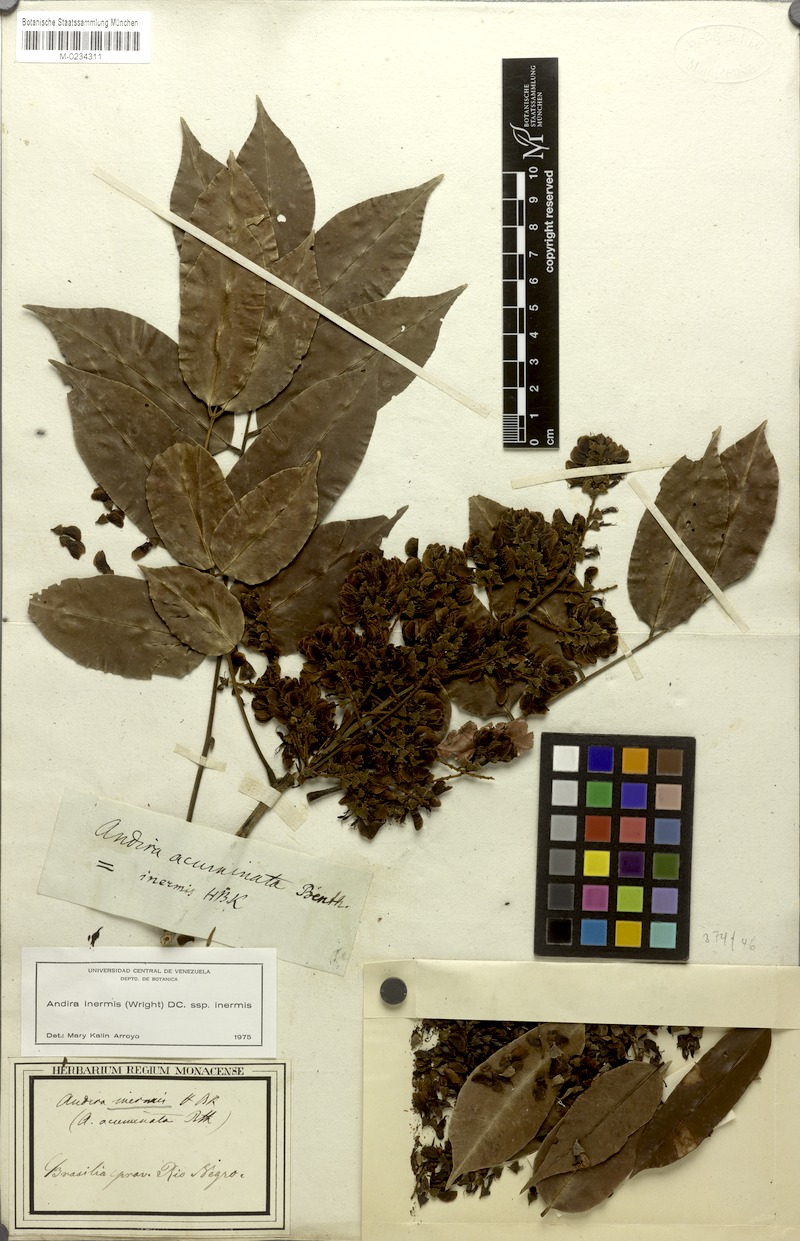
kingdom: Plantae
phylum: Tracheophyta
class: Magnoliopsida
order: Fabales
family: Fabaceae
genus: Andira
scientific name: Andira inermis
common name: Angelin
